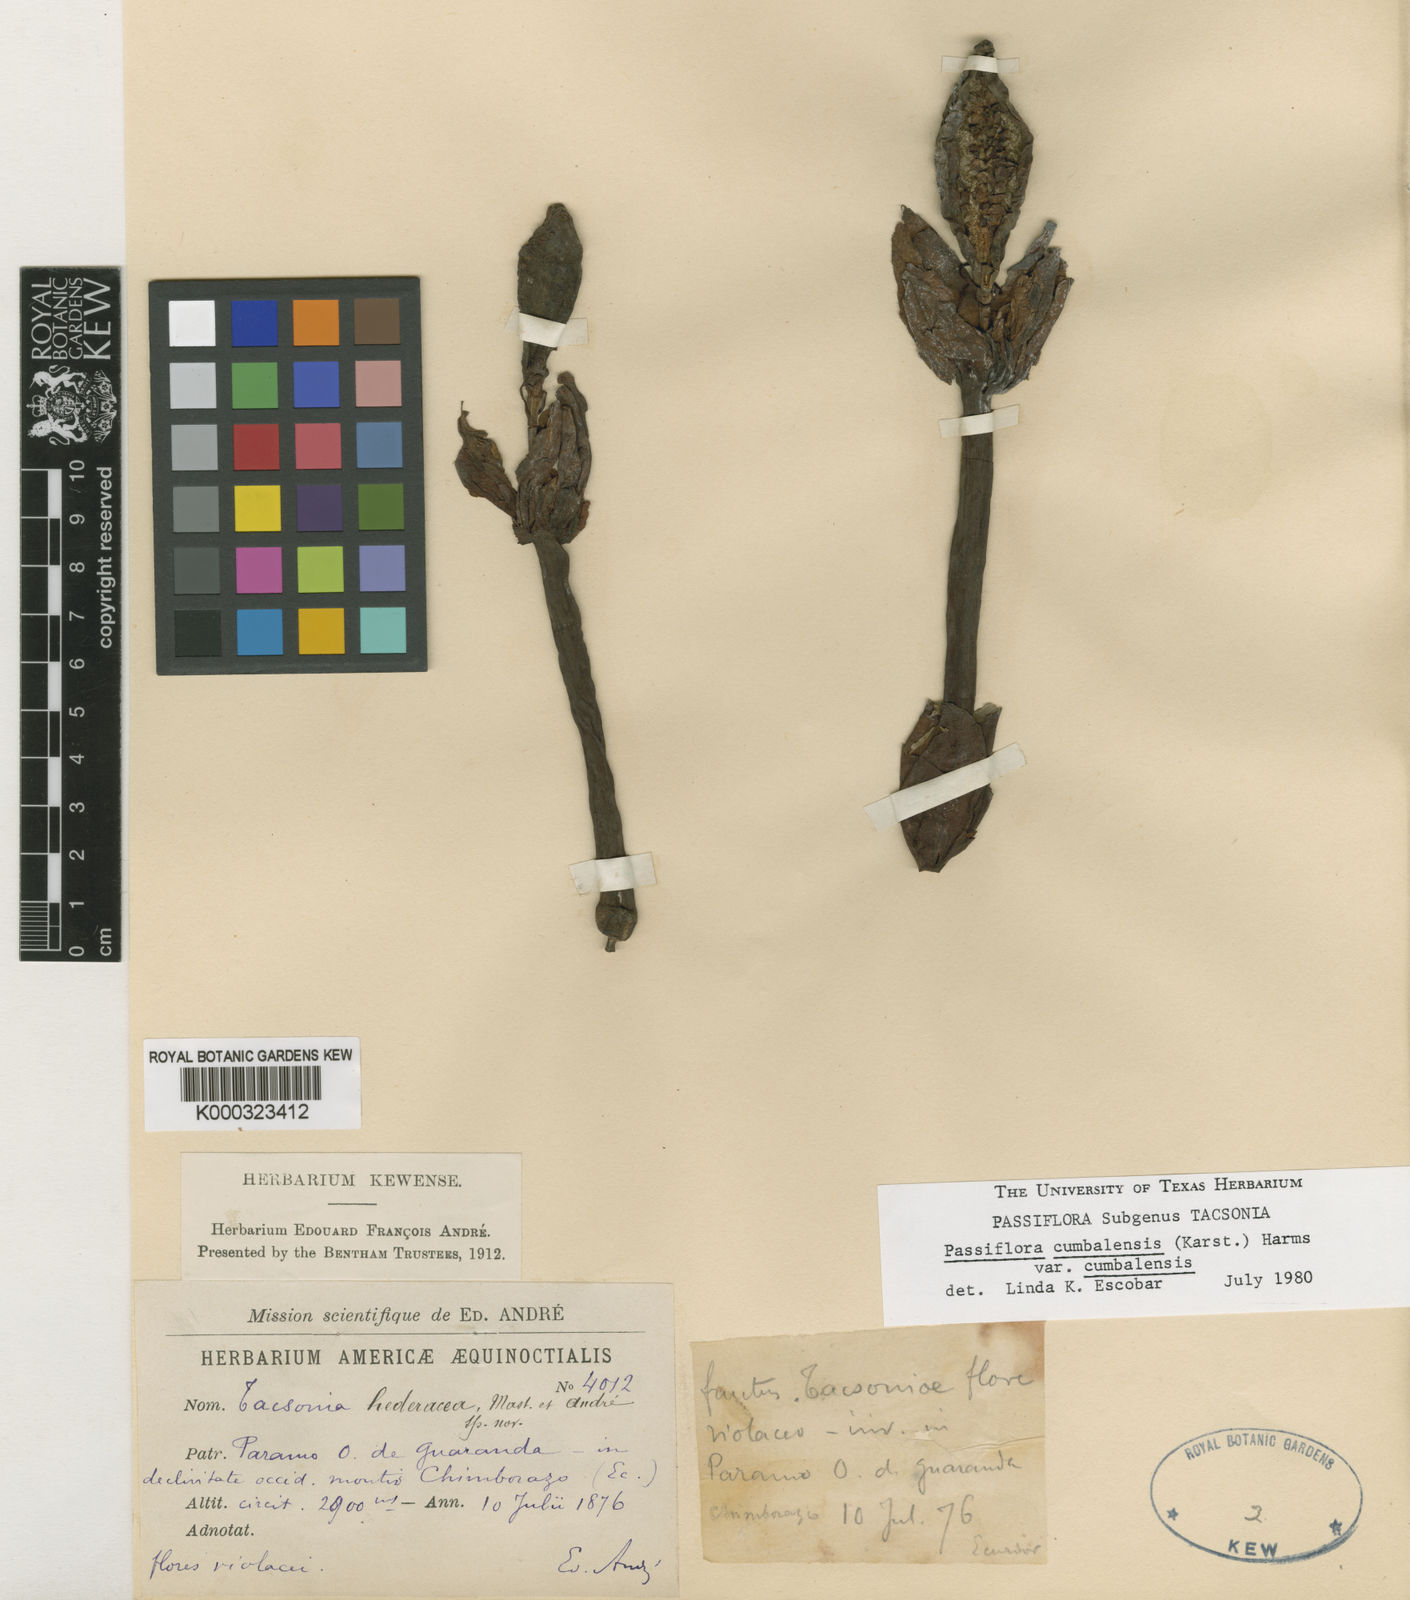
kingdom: Plantae
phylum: Tracheophyta
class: Magnoliopsida
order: Malpighiales
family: Passifloraceae
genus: Passiflora
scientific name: Passiflora cumbalensis
